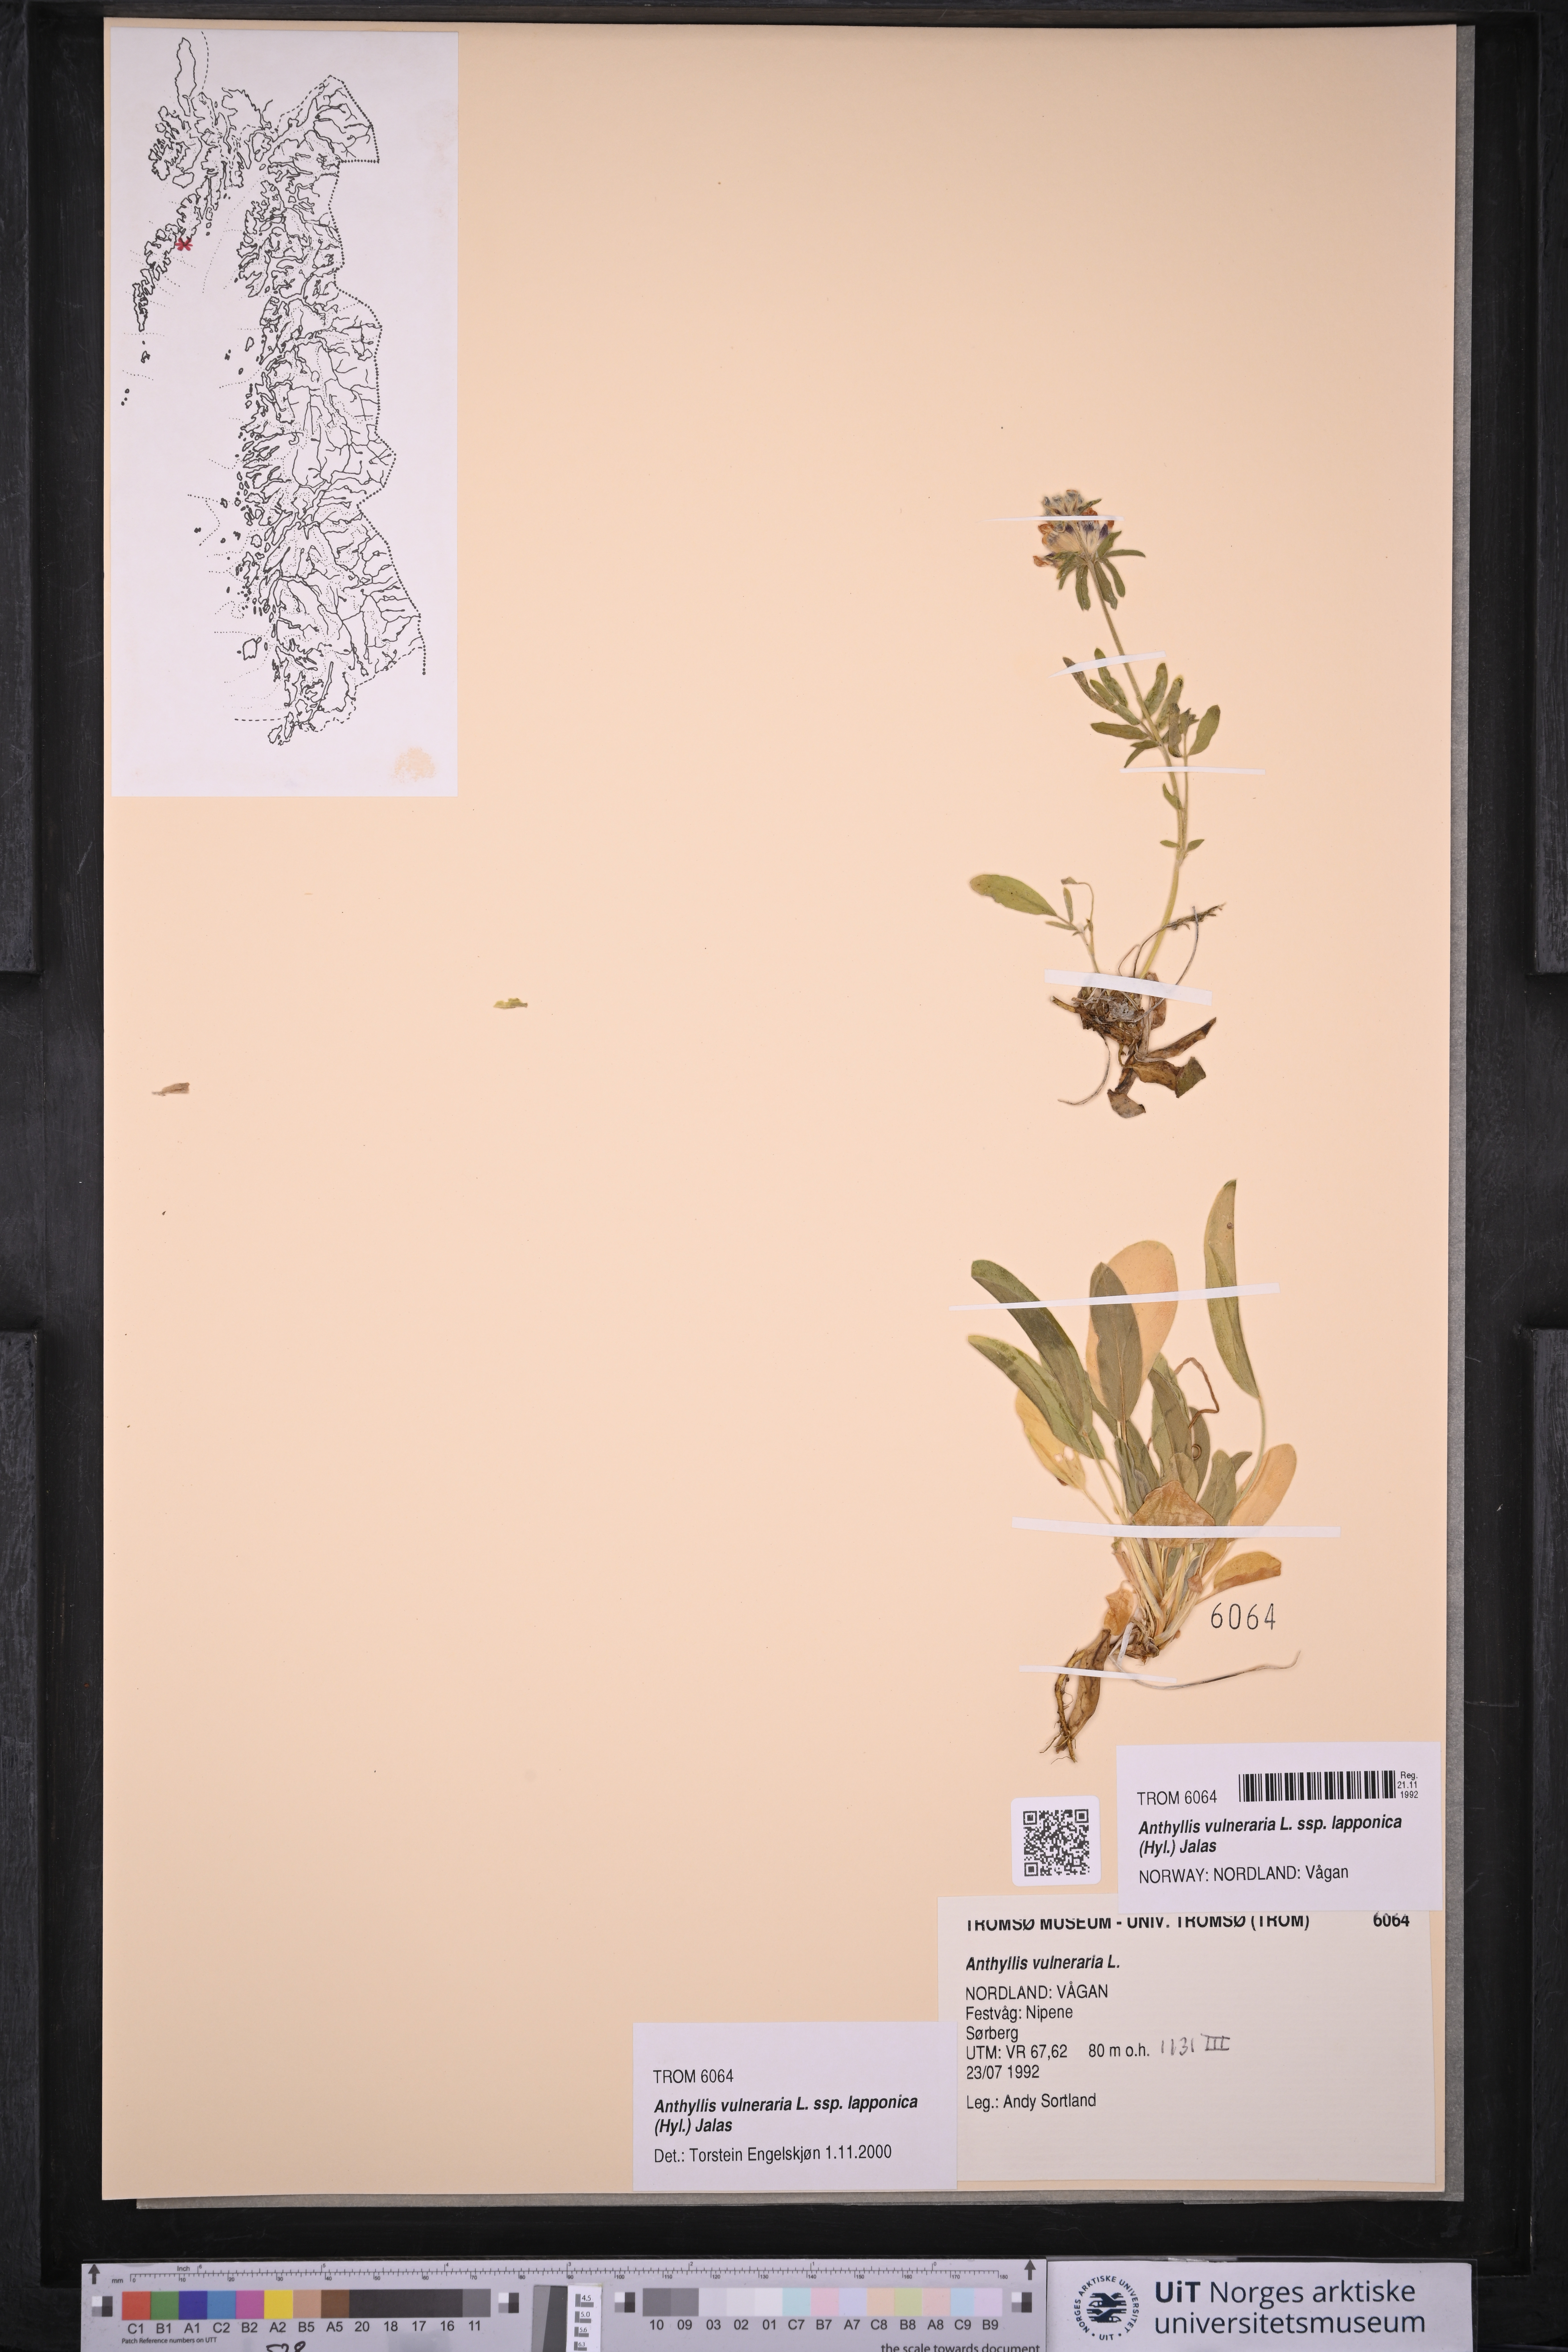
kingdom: Plantae
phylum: Tracheophyta
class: Magnoliopsida
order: Fabales
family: Fabaceae
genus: Anthyllis
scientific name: Anthyllis vulneraria
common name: Kidney vetch
